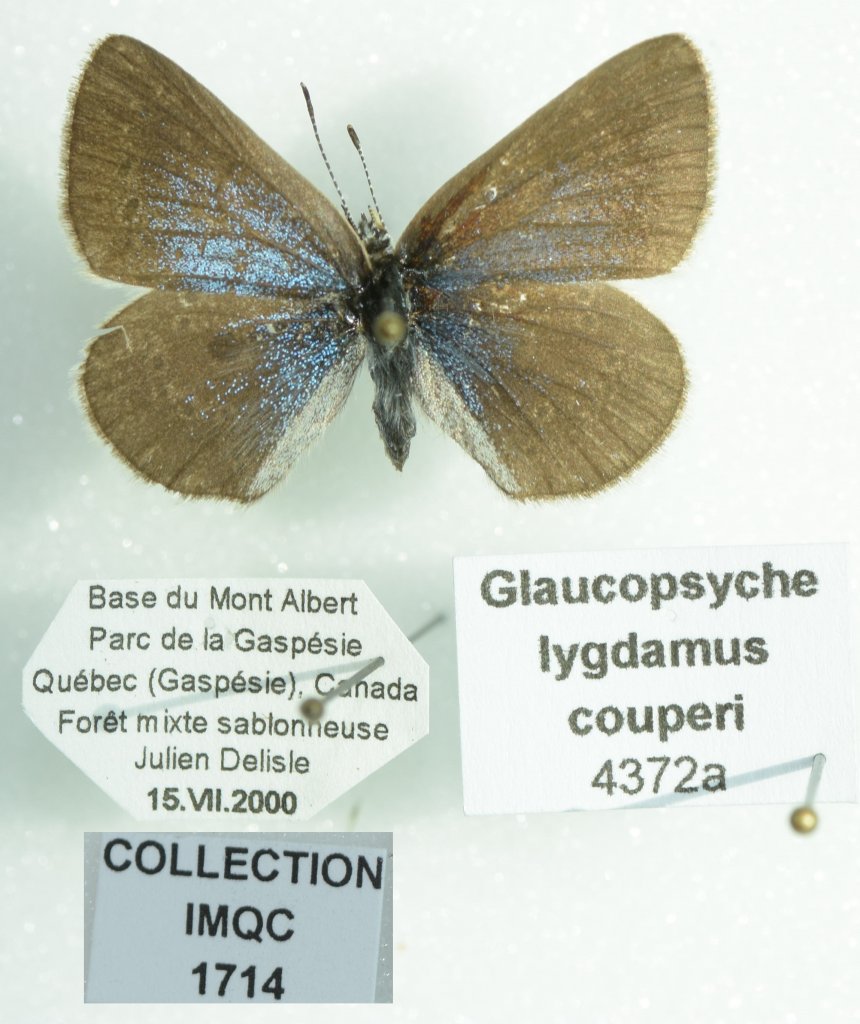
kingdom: Animalia
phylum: Arthropoda
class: Insecta
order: Lepidoptera
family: Lycaenidae
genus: Glaucopsyche
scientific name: Glaucopsyche lygdamus
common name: Silvery Blue
